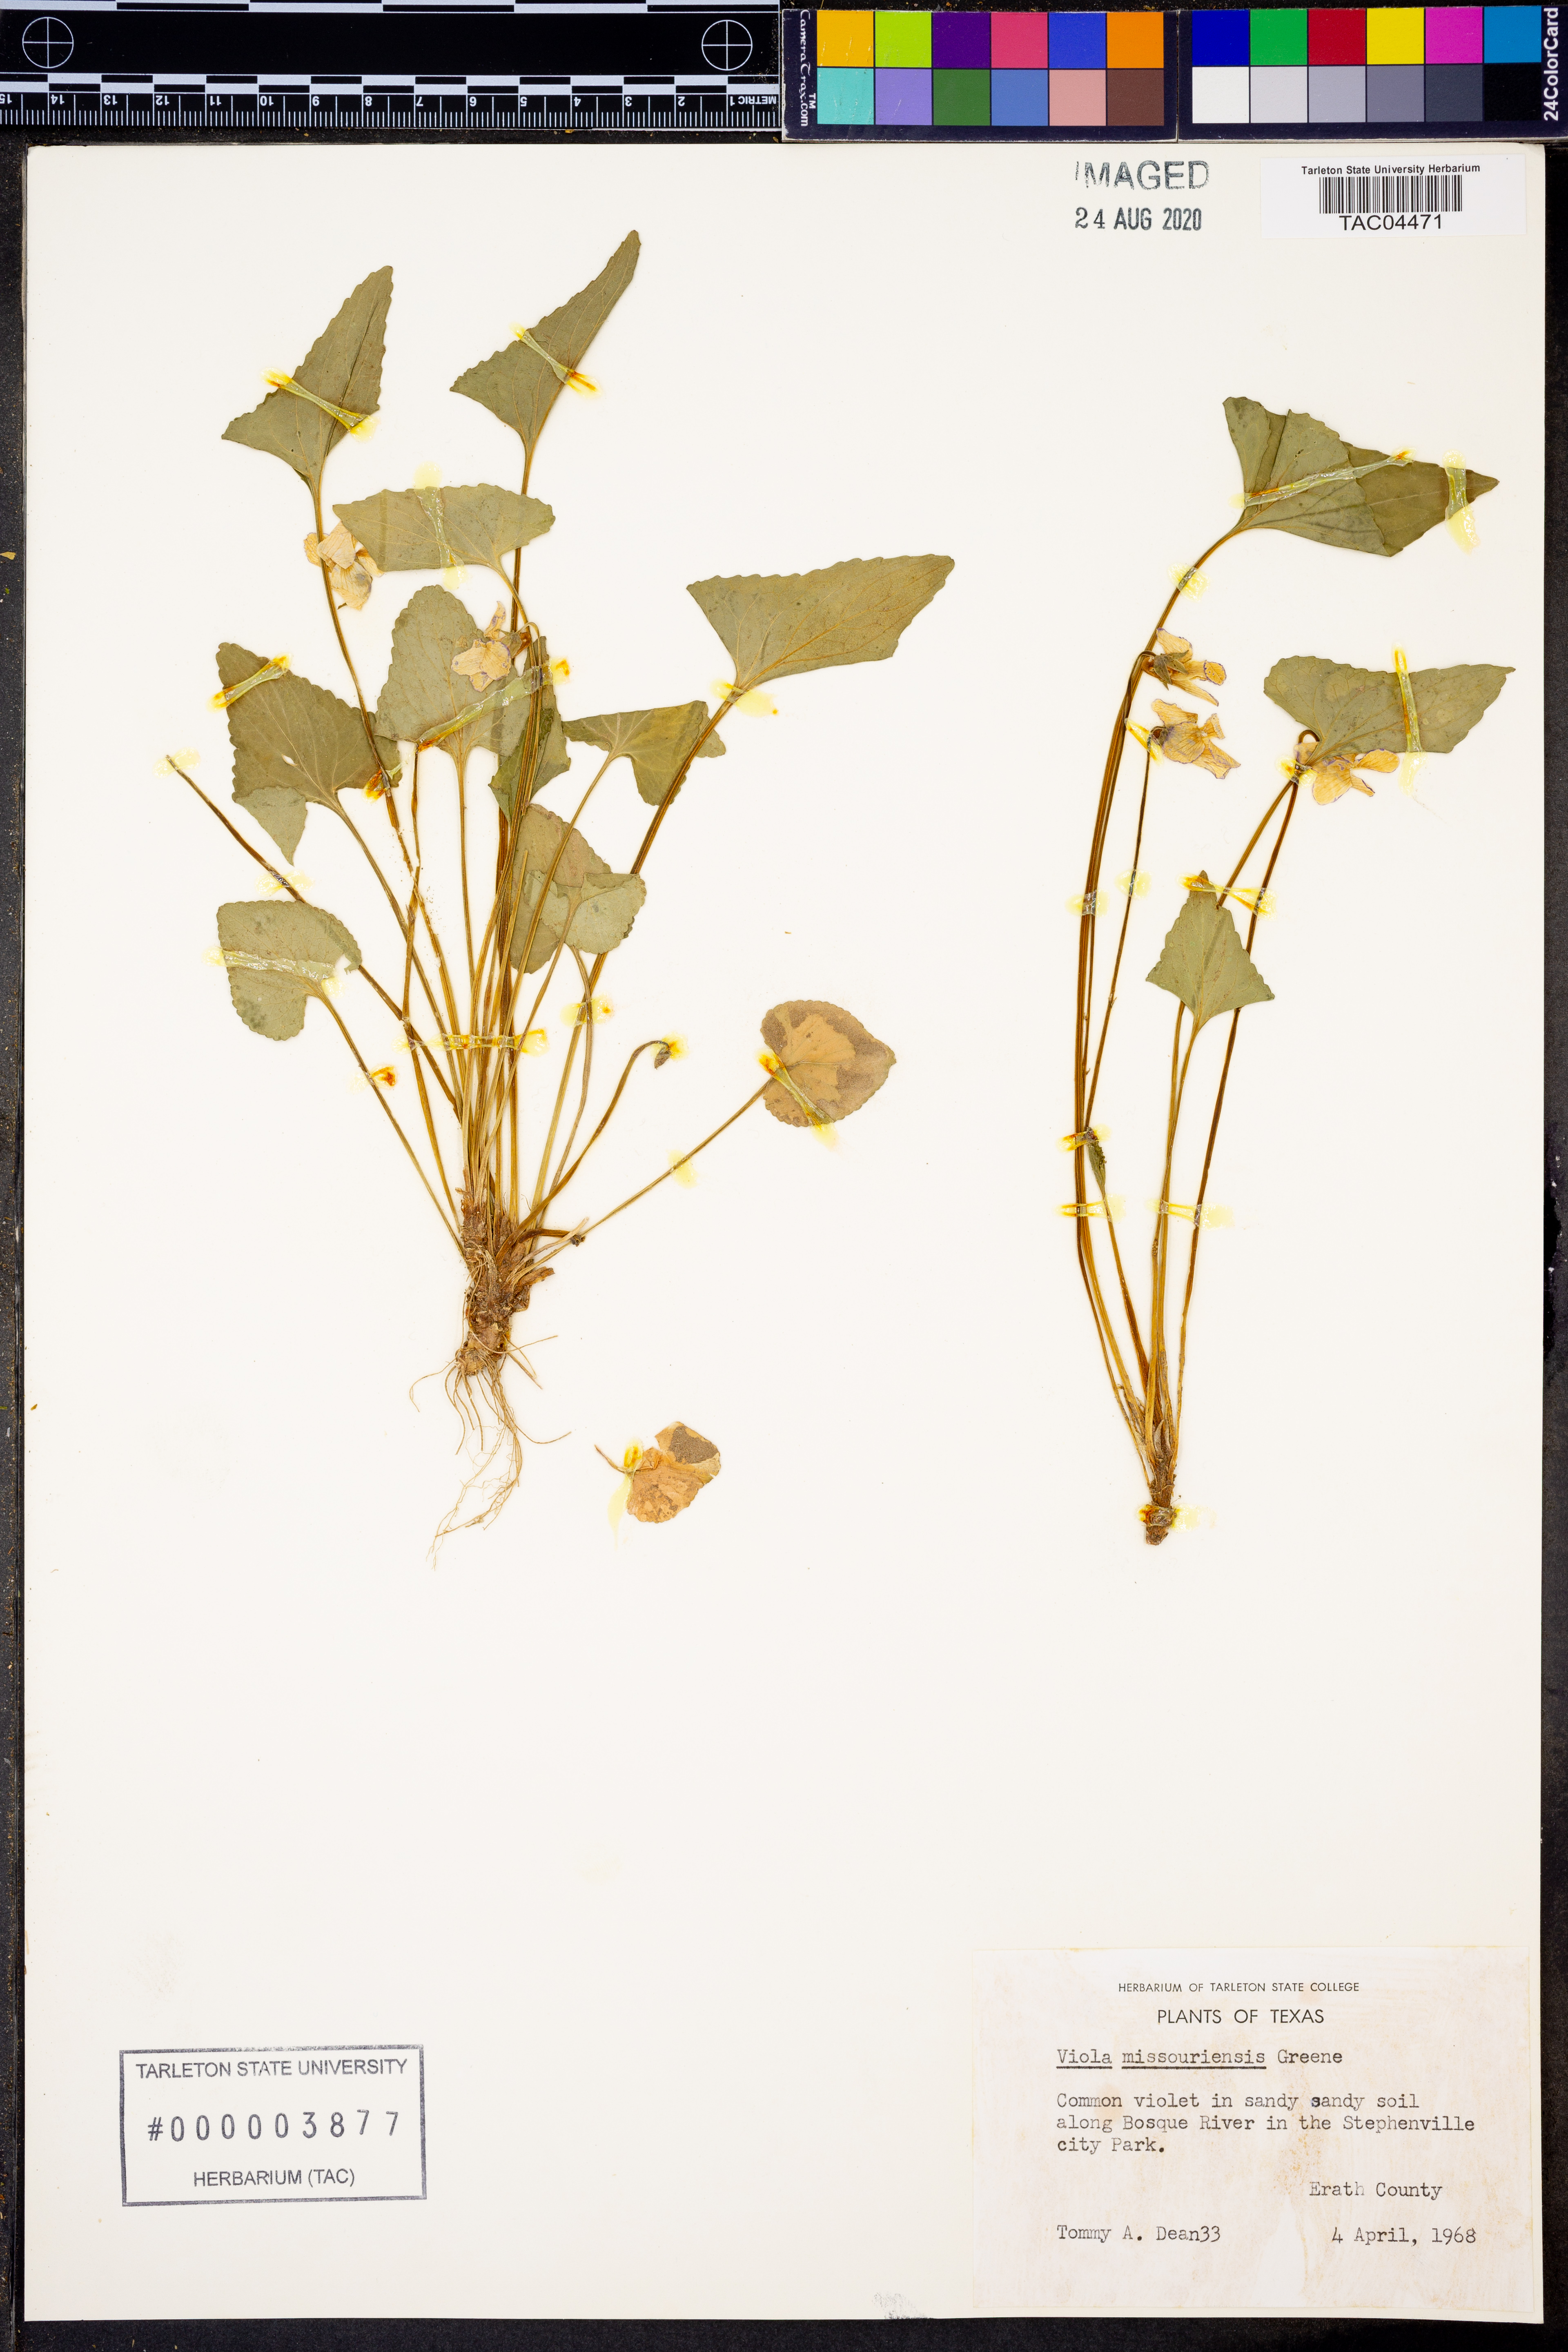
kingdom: Plantae
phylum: Tracheophyta
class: Magnoliopsida
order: Malpighiales
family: Violaceae
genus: Viola
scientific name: Viola missouriensis
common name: Missouri violet
